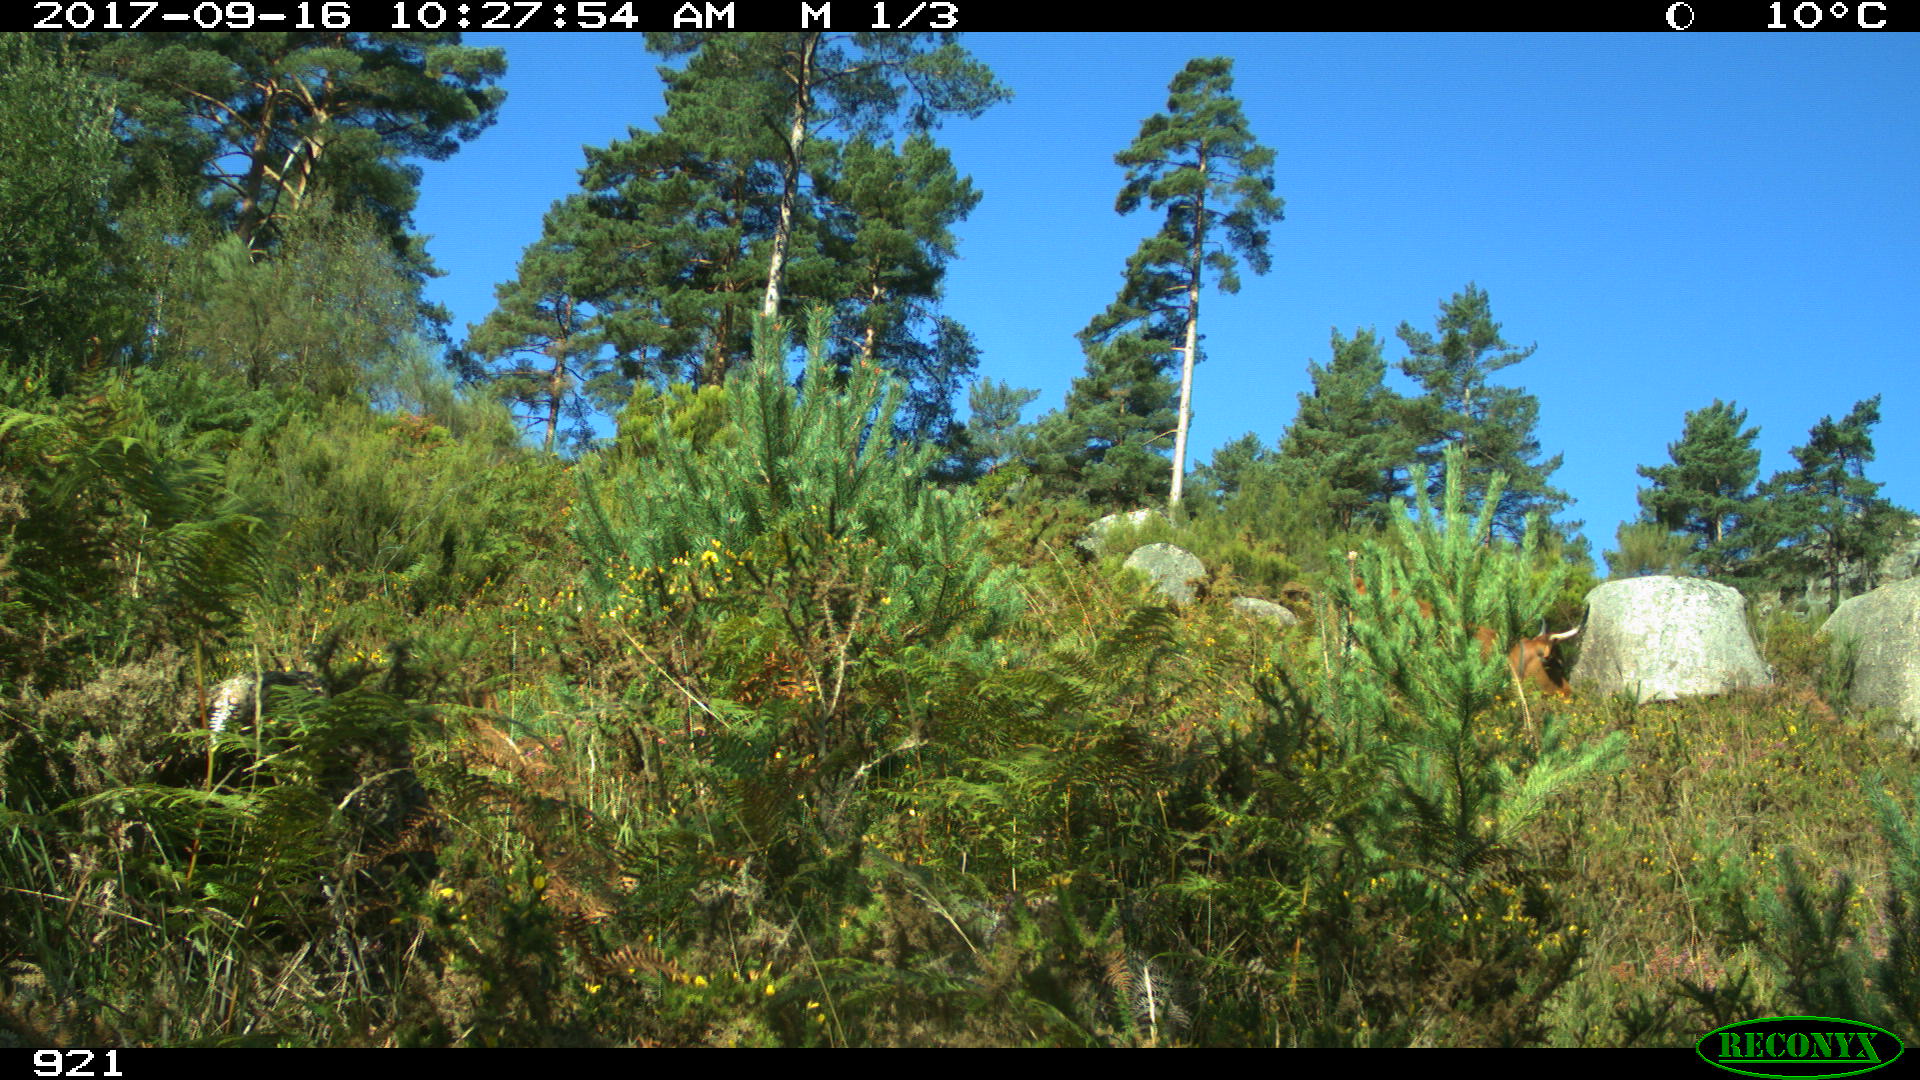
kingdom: Animalia
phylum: Chordata
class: Mammalia
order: Artiodactyla
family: Bovidae
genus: Bos
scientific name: Bos taurus
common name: Domesticated cattle
